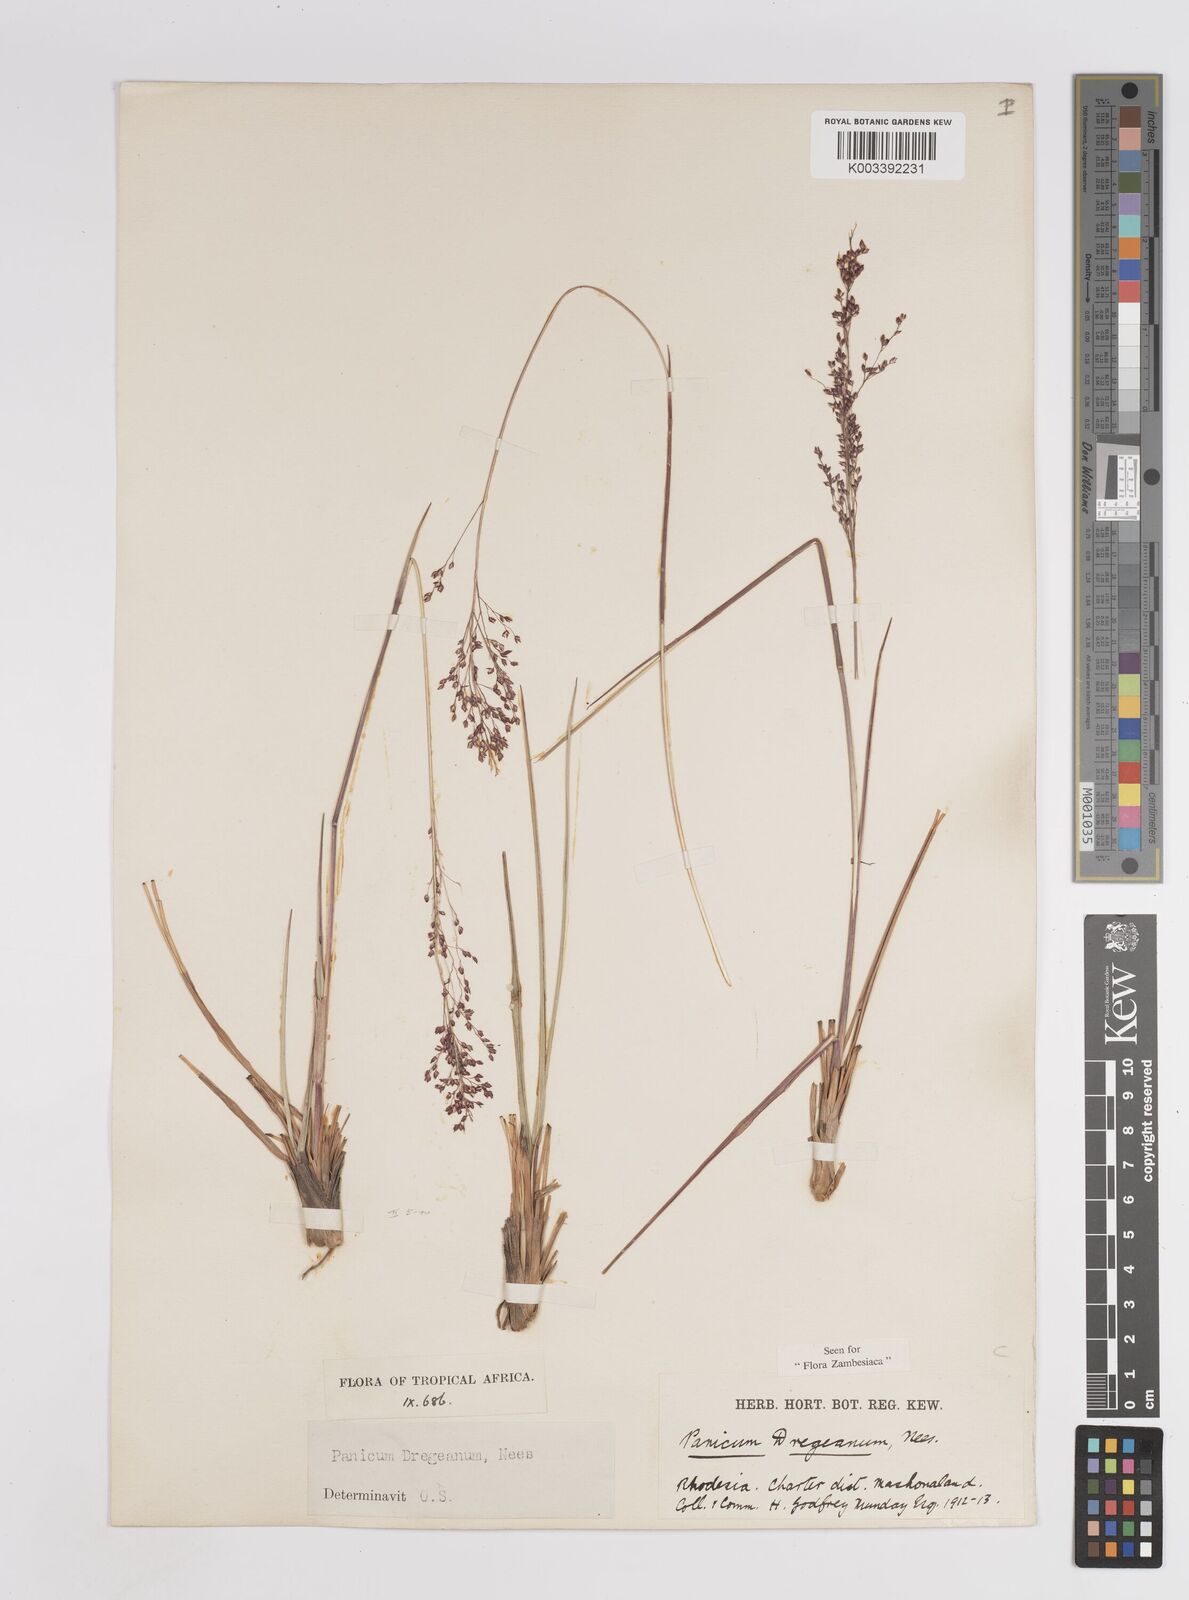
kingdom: Plantae
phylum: Tracheophyta
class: Liliopsida
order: Poales
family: Poaceae
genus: Panicum
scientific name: Panicum dregeanum
